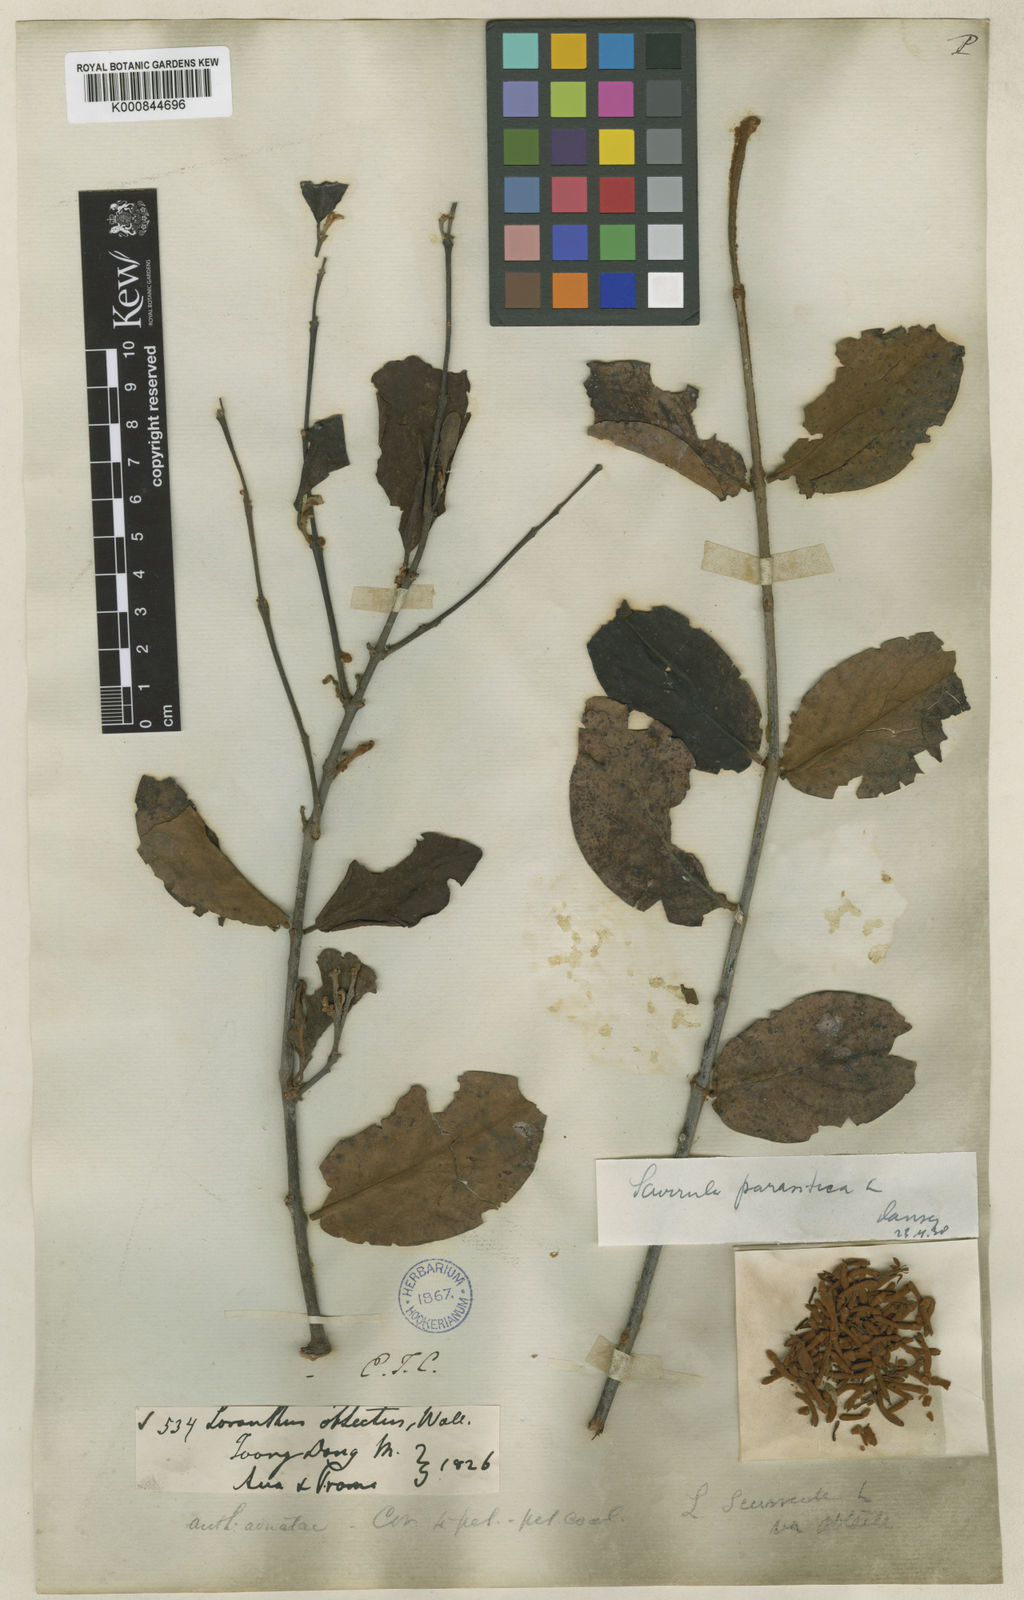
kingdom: Plantae
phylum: Tracheophyta
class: Magnoliopsida
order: Santalales
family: Loranthaceae
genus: Scurrula
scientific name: Scurrula parasitica
